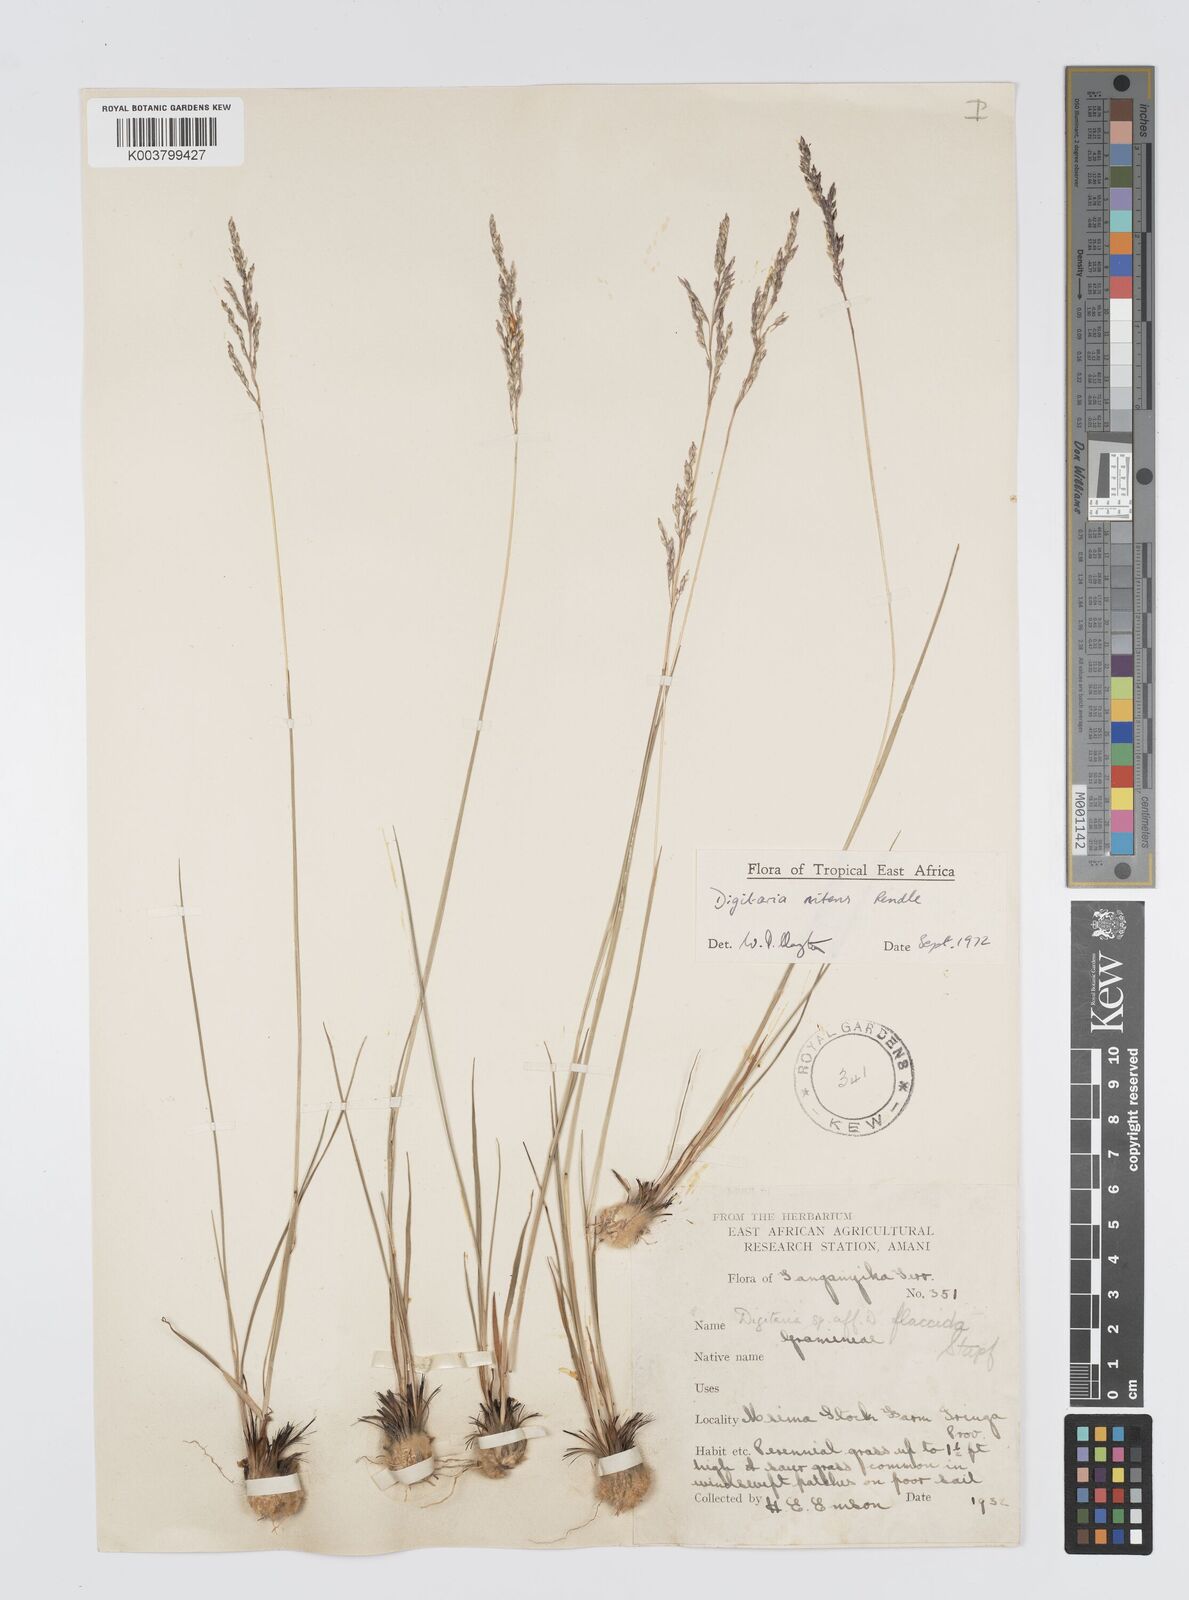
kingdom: Plantae
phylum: Tracheophyta
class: Liliopsida
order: Poales
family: Poaceae
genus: Digitaria
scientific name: Digitaria flaccida
